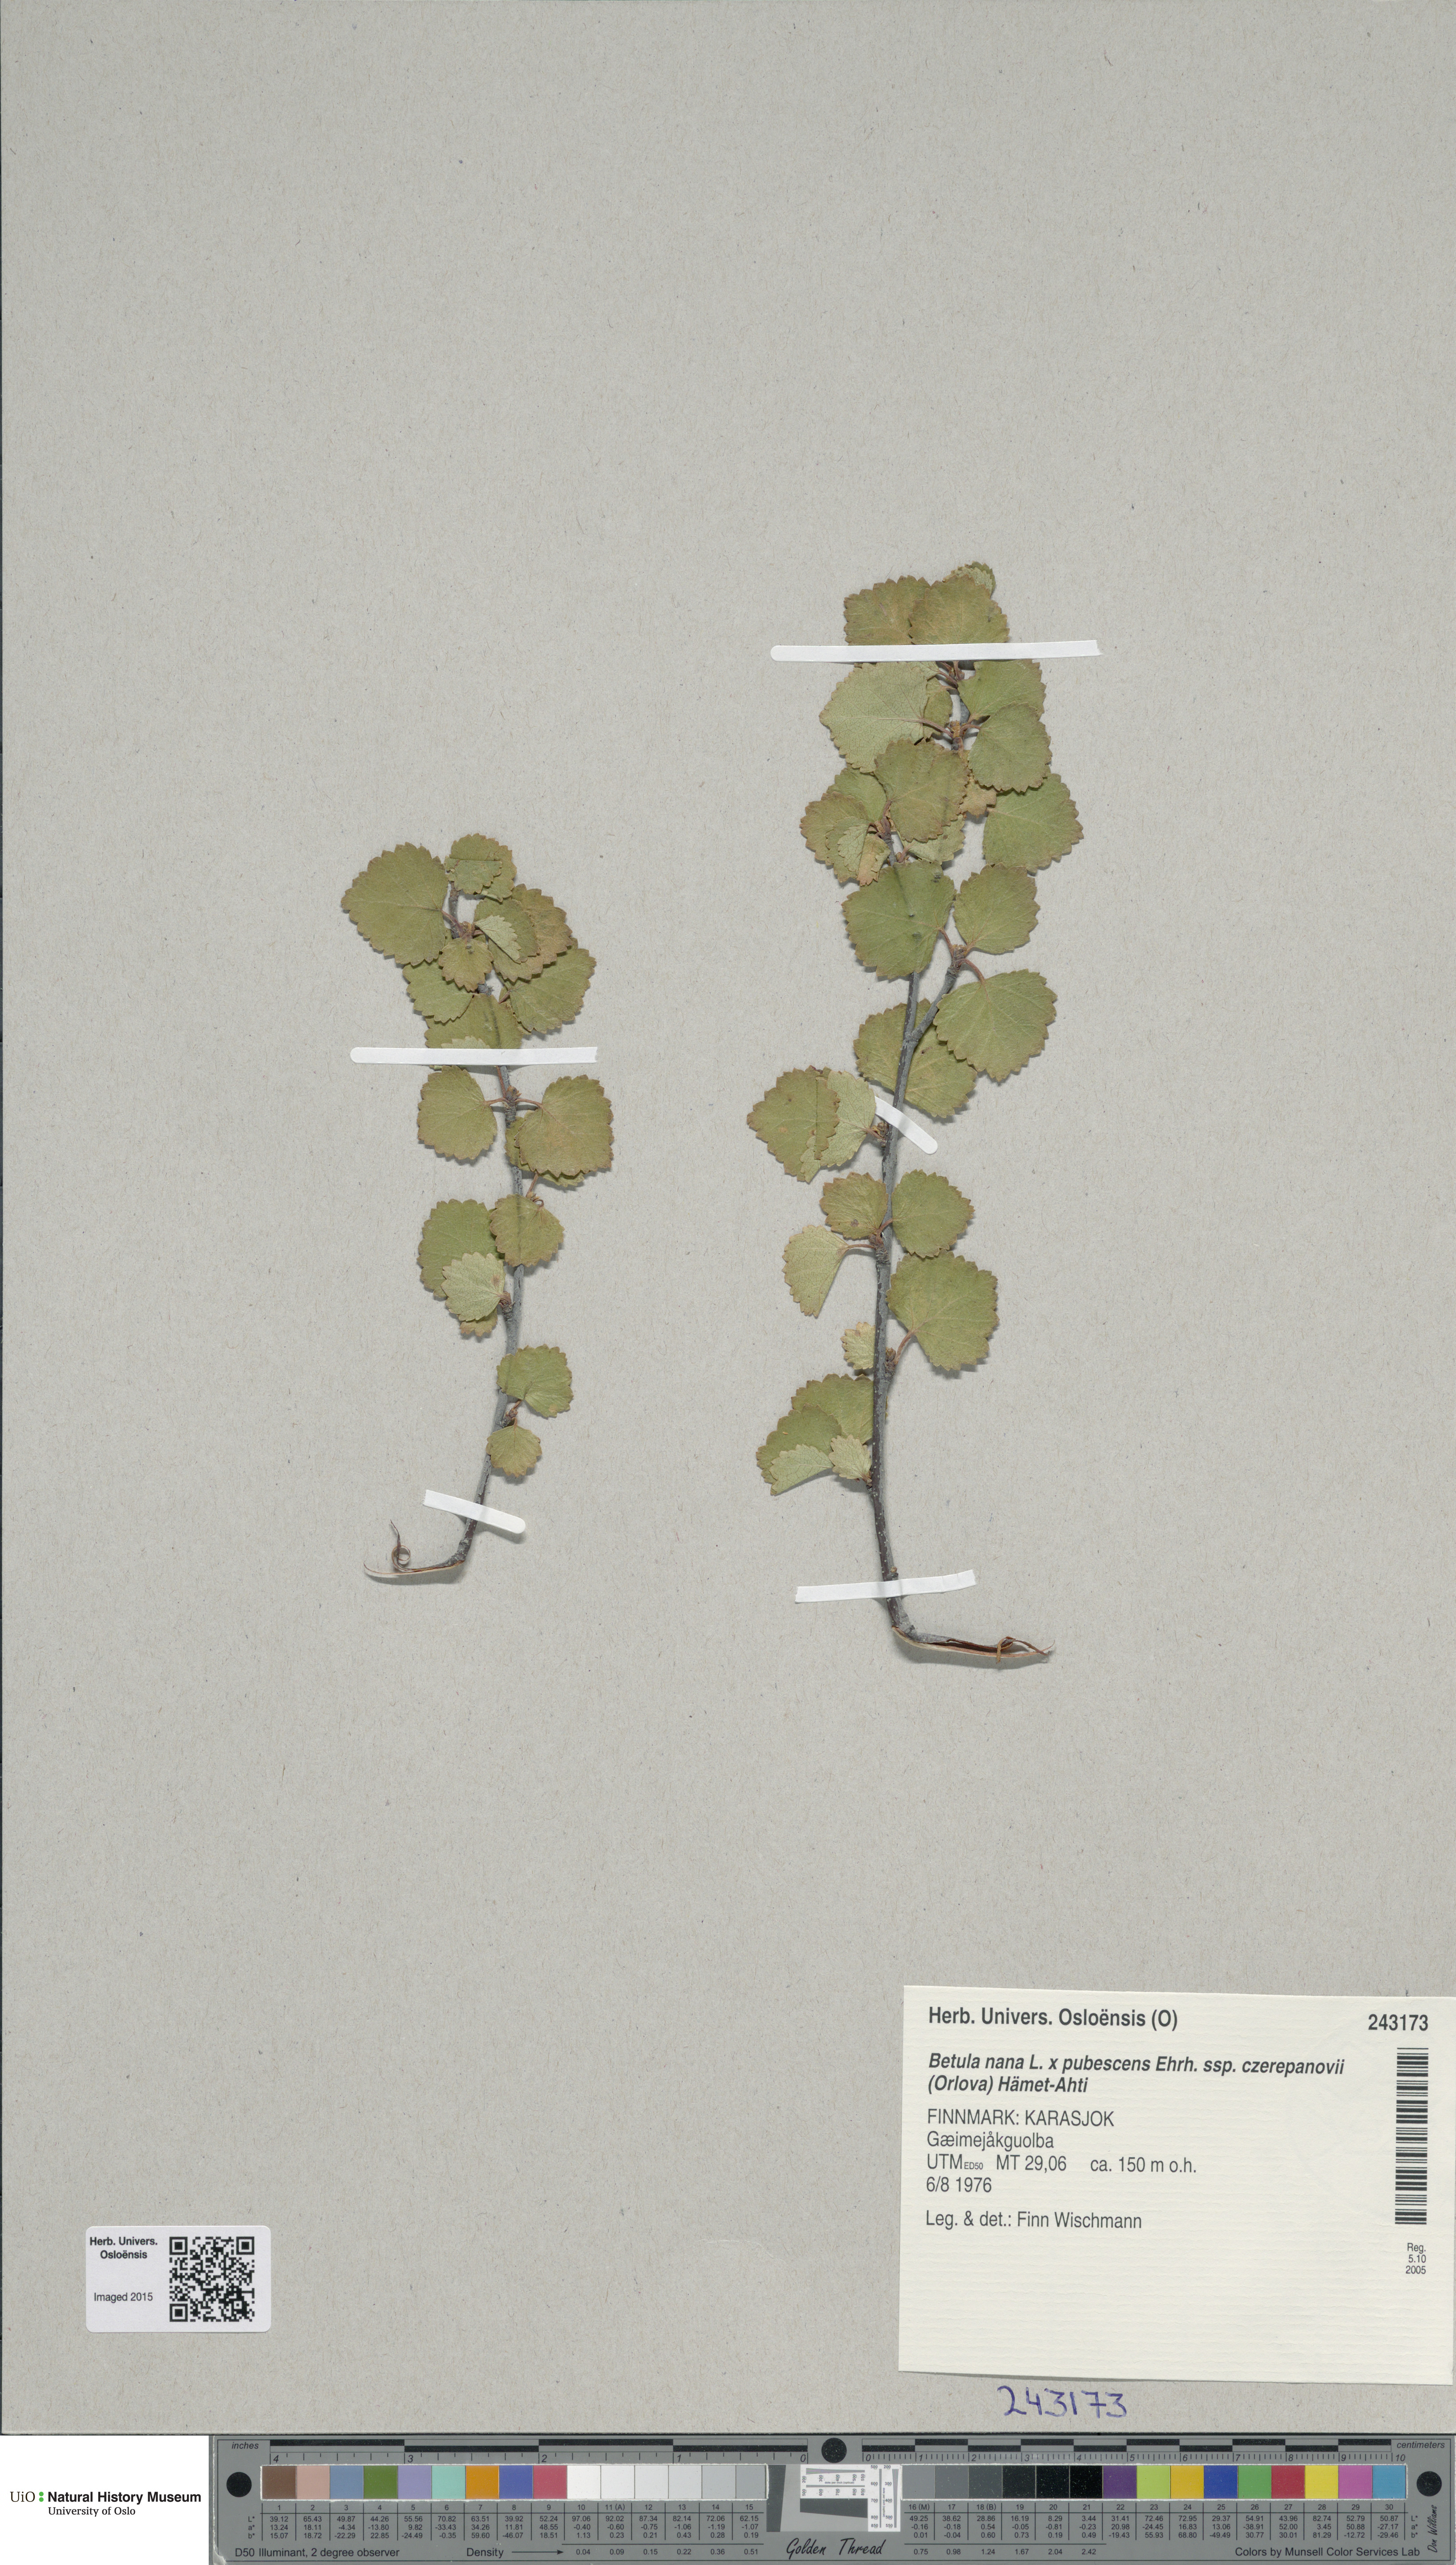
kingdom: Plantae
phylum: Tracheophyta
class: Magnoliopsida
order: Fagales
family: Betulaceae
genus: Betula
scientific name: Betula
